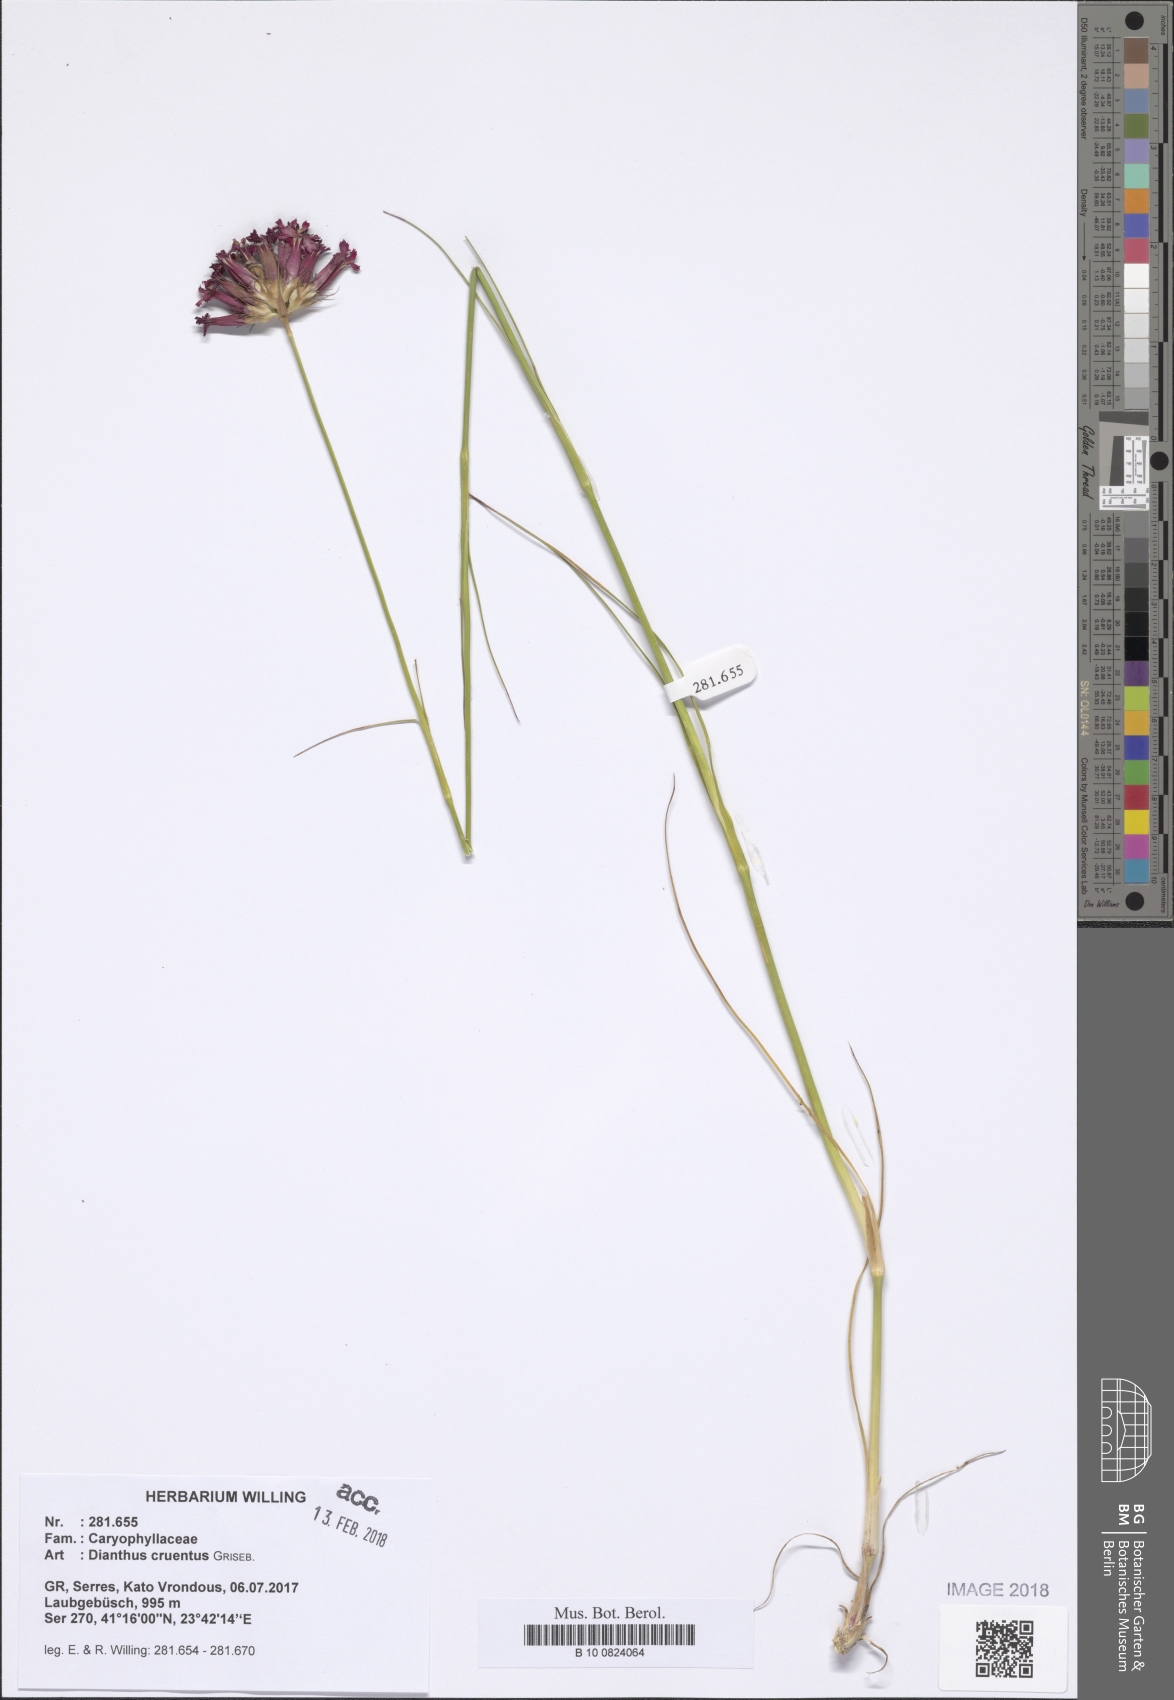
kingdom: Plantae
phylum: Tracheophyta
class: Magnoliopsida
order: Caryophyllales
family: Caryophyllaceae
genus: Dianthus
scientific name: Dianthus cruentus
